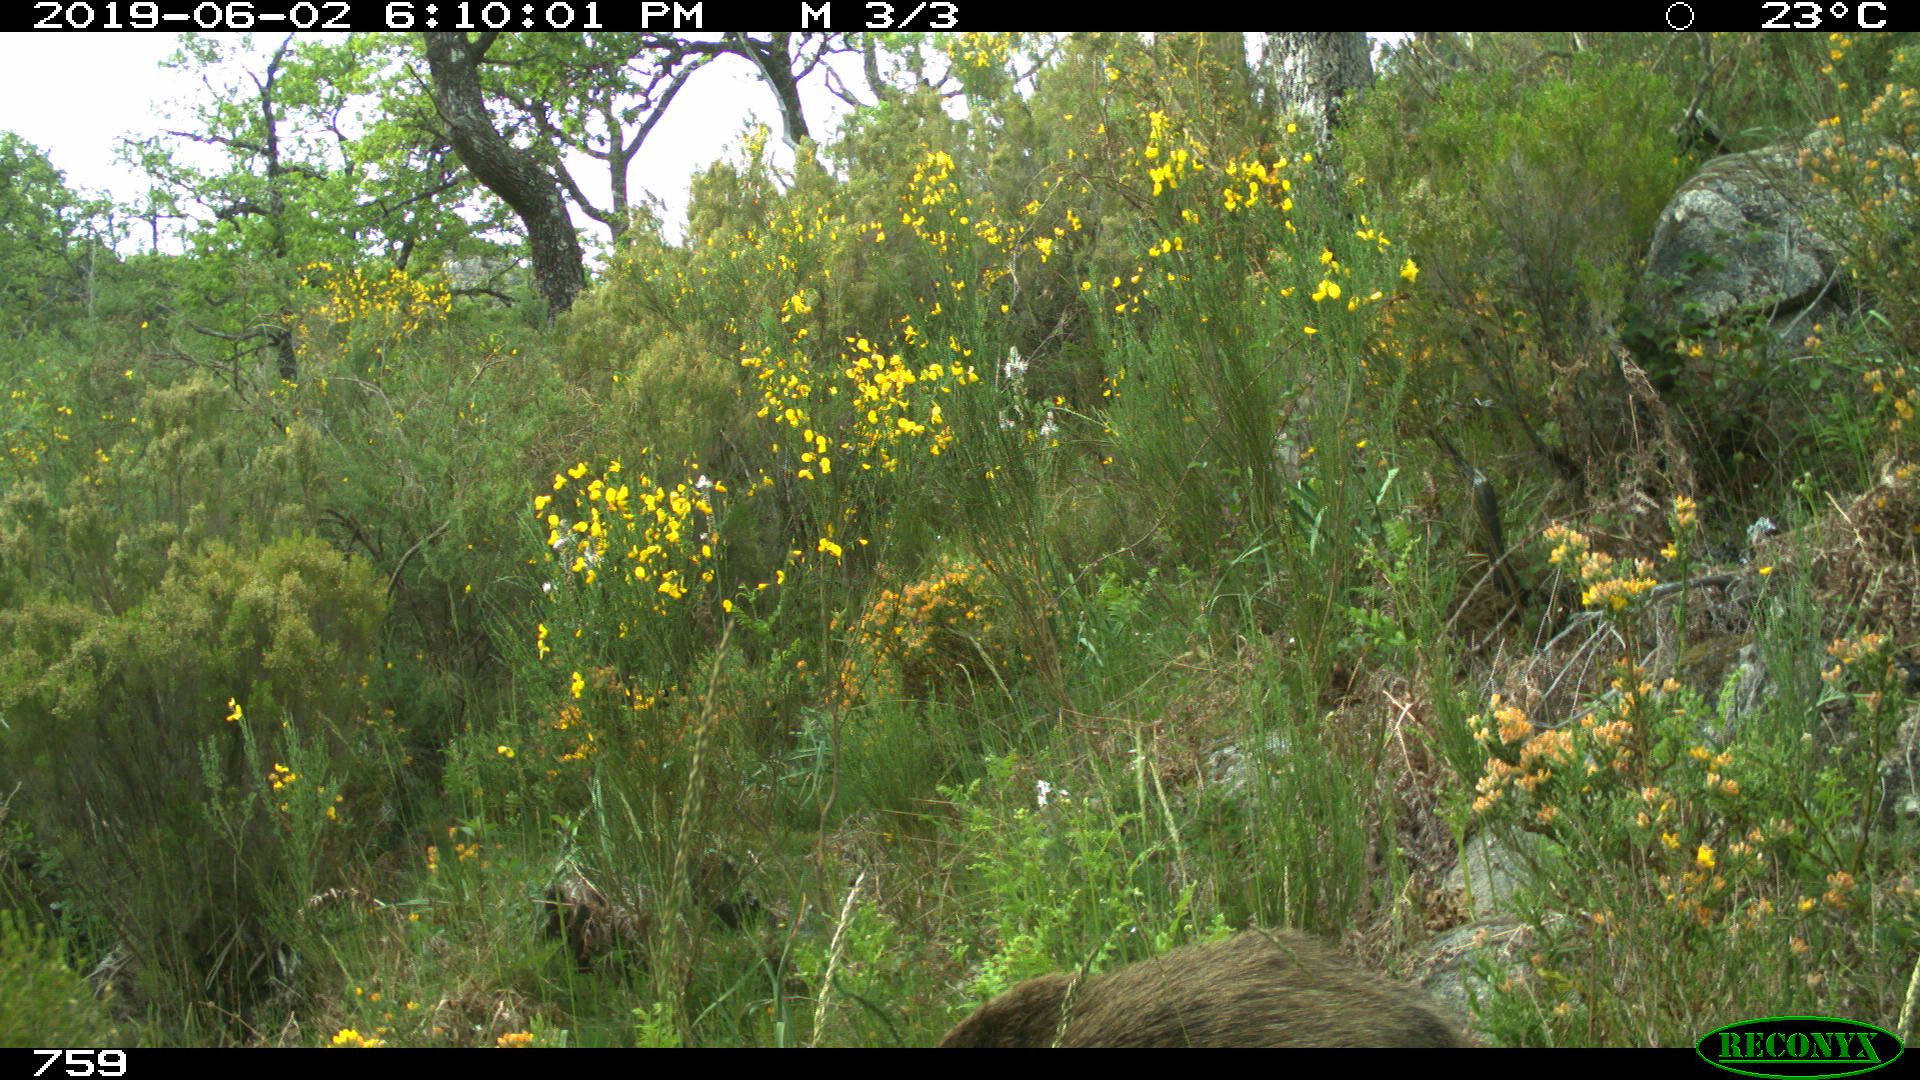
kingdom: Animalia
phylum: Chordata
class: Mammalia
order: Artiodactyla
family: Suidae
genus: Sus
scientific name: Sus scrofa
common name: Wild boar
